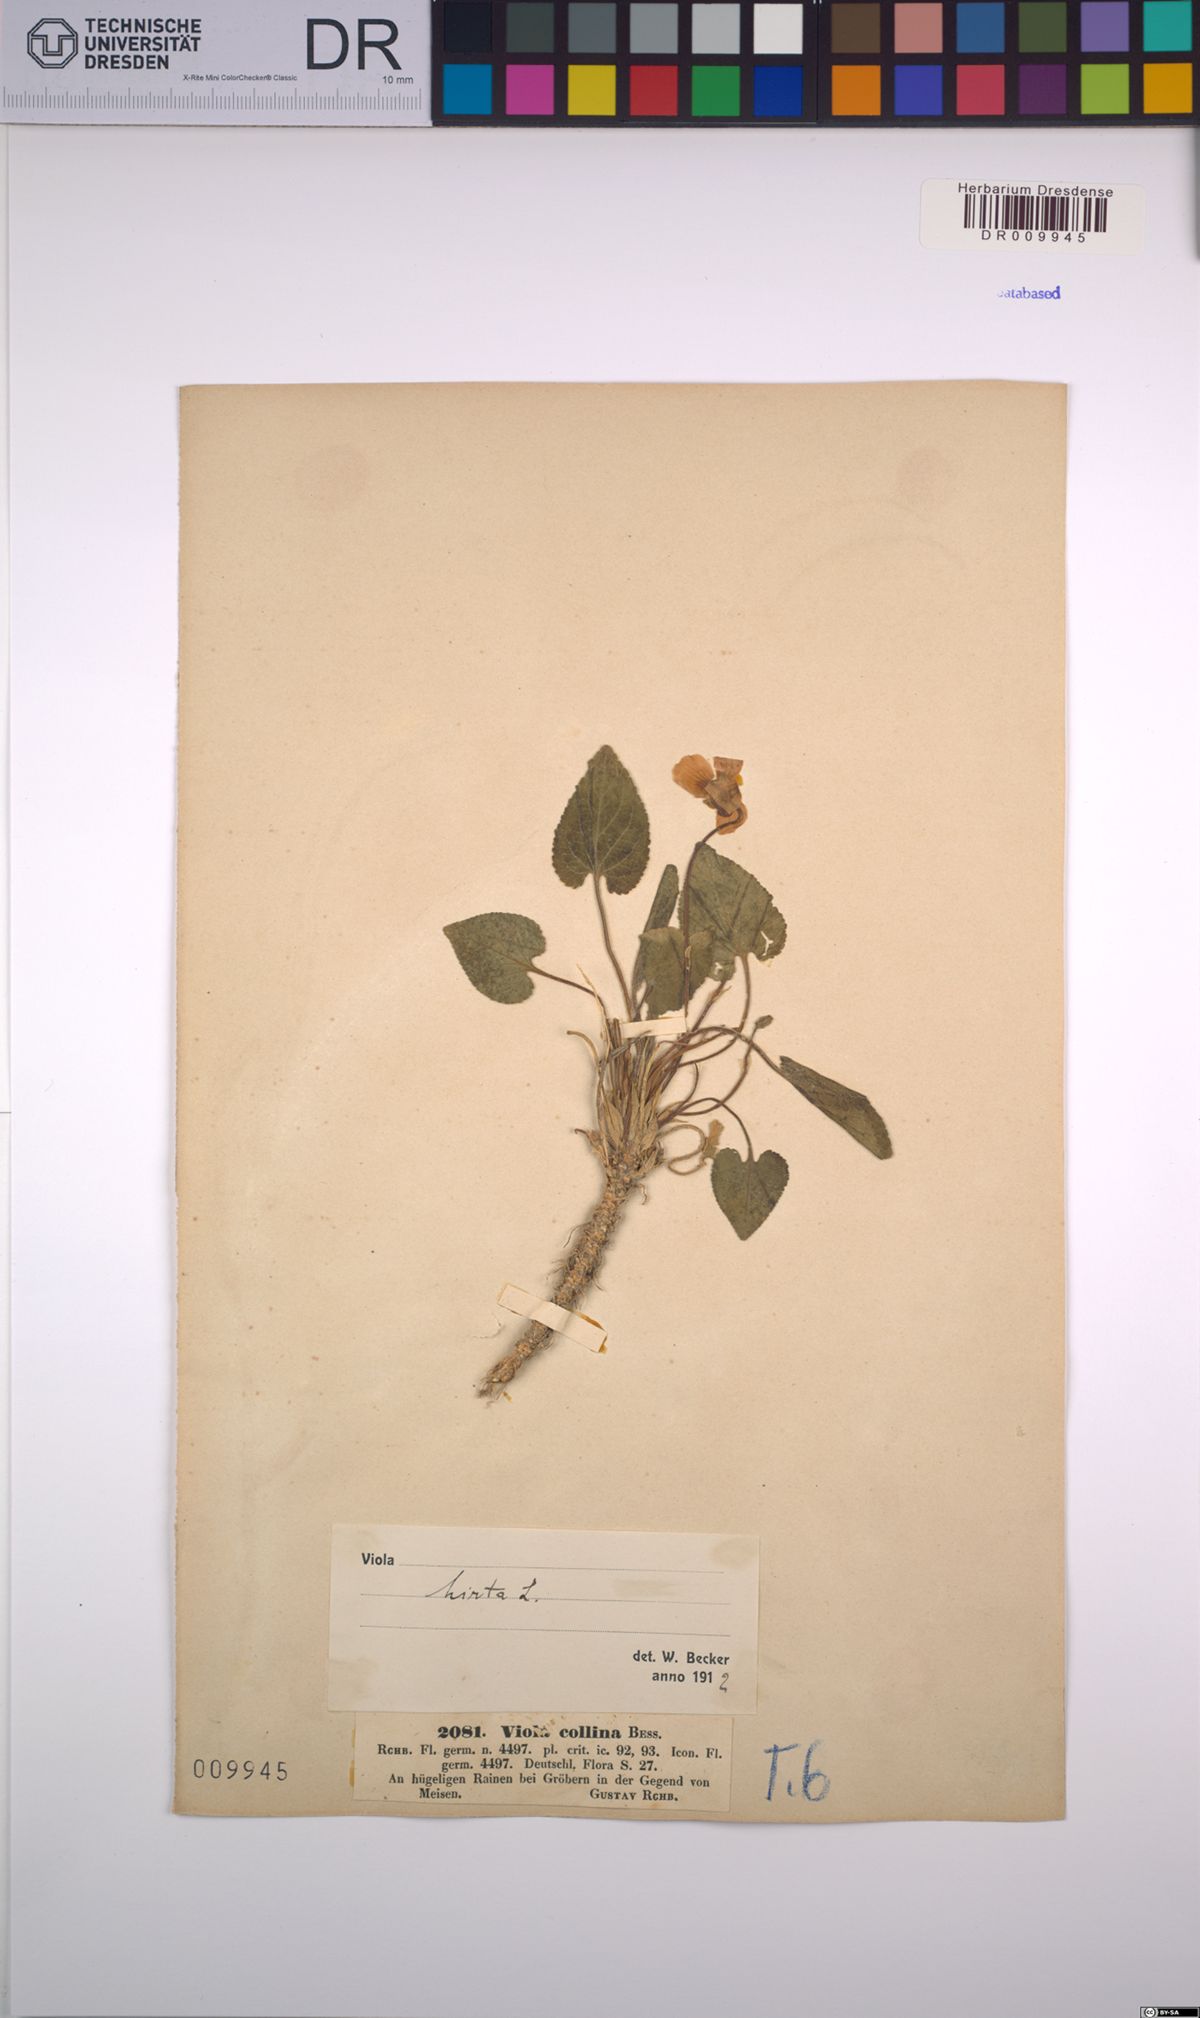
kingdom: Plantae
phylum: Tracheophyta
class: Magnoliopsida
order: Malpighiales
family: Violaceae
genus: Viola
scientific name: Viola hirta
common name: Hairy violet
